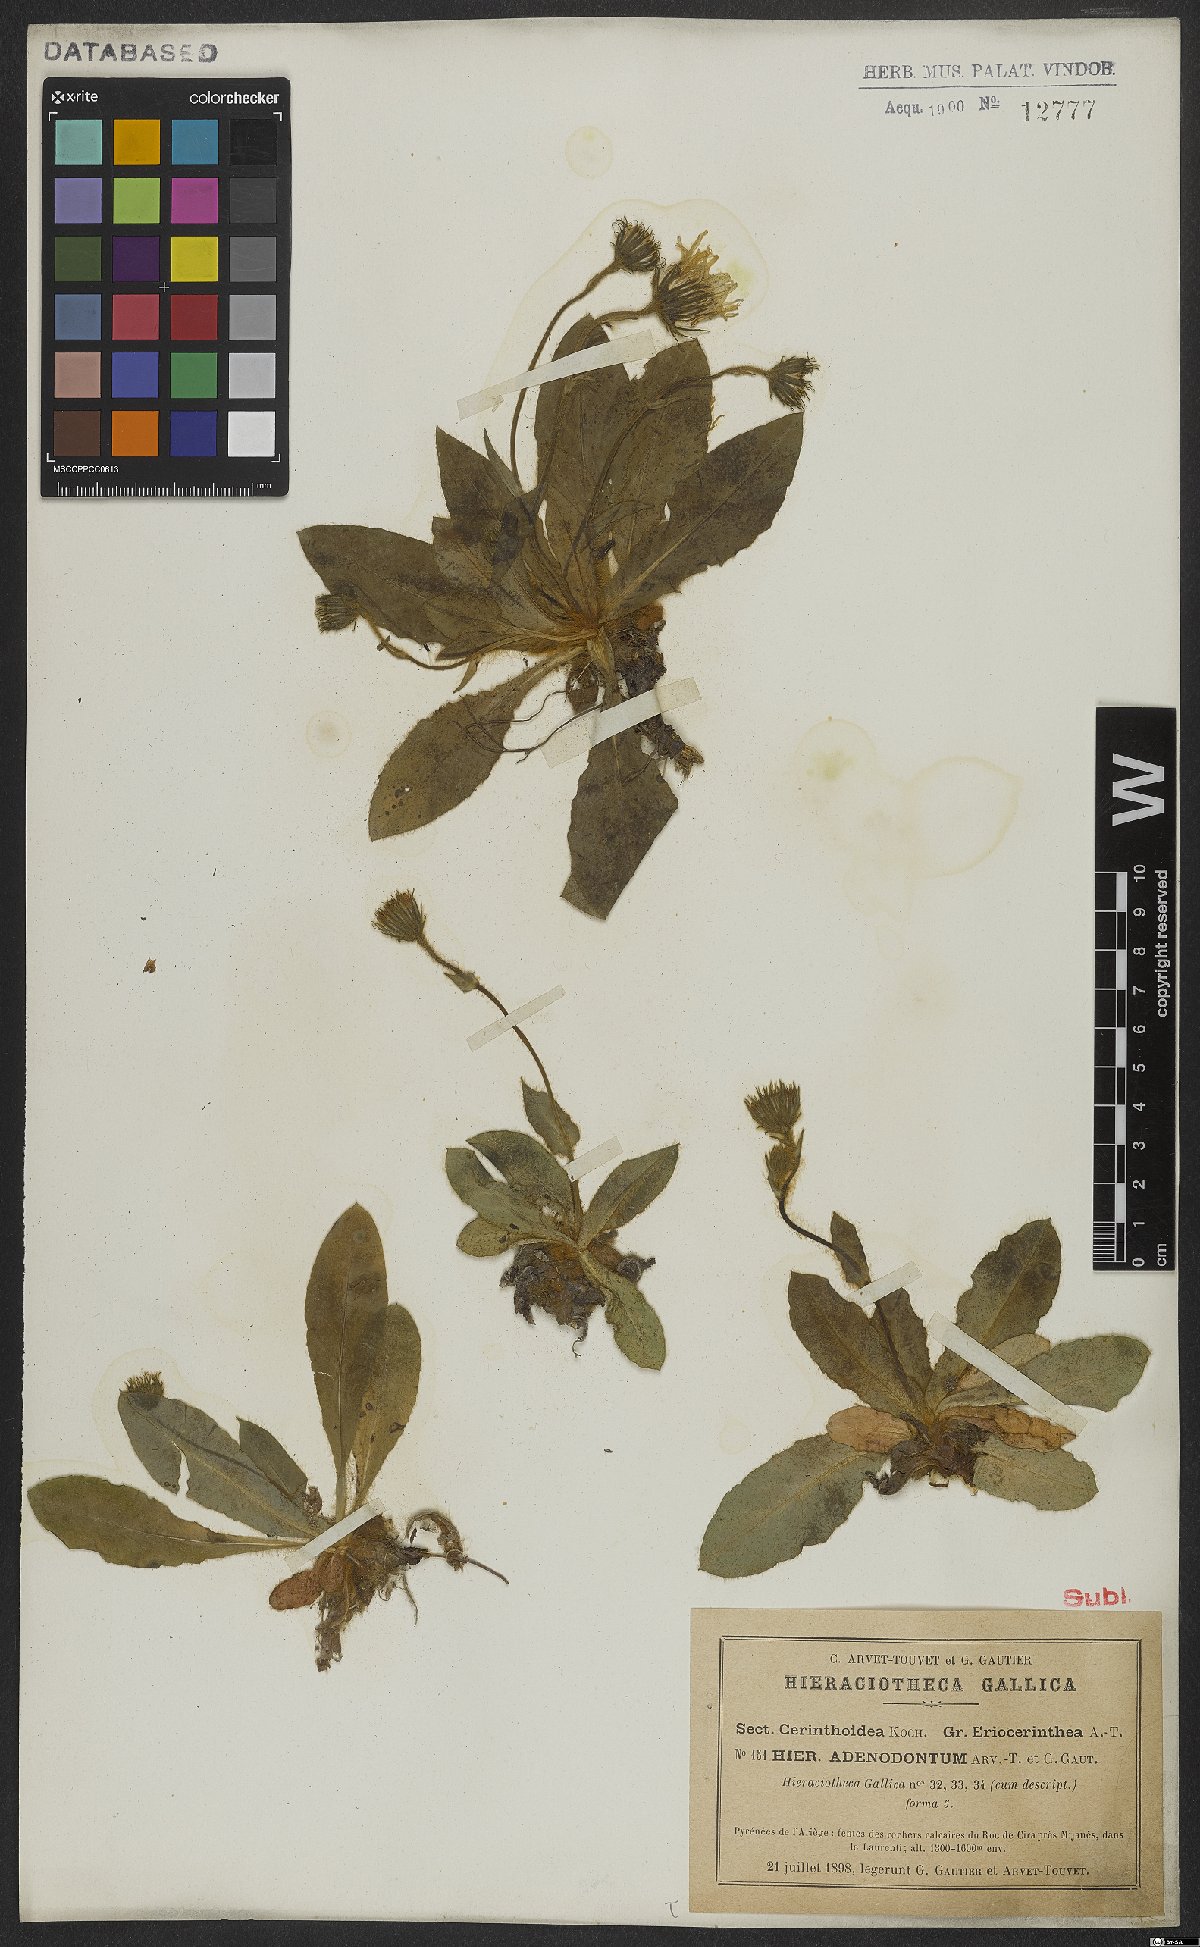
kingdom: Plantae
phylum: Tracheophyta
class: Magnoliopsida
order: Asterales
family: Asteraceae
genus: Hieracium
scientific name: Hieracium adenodontum
